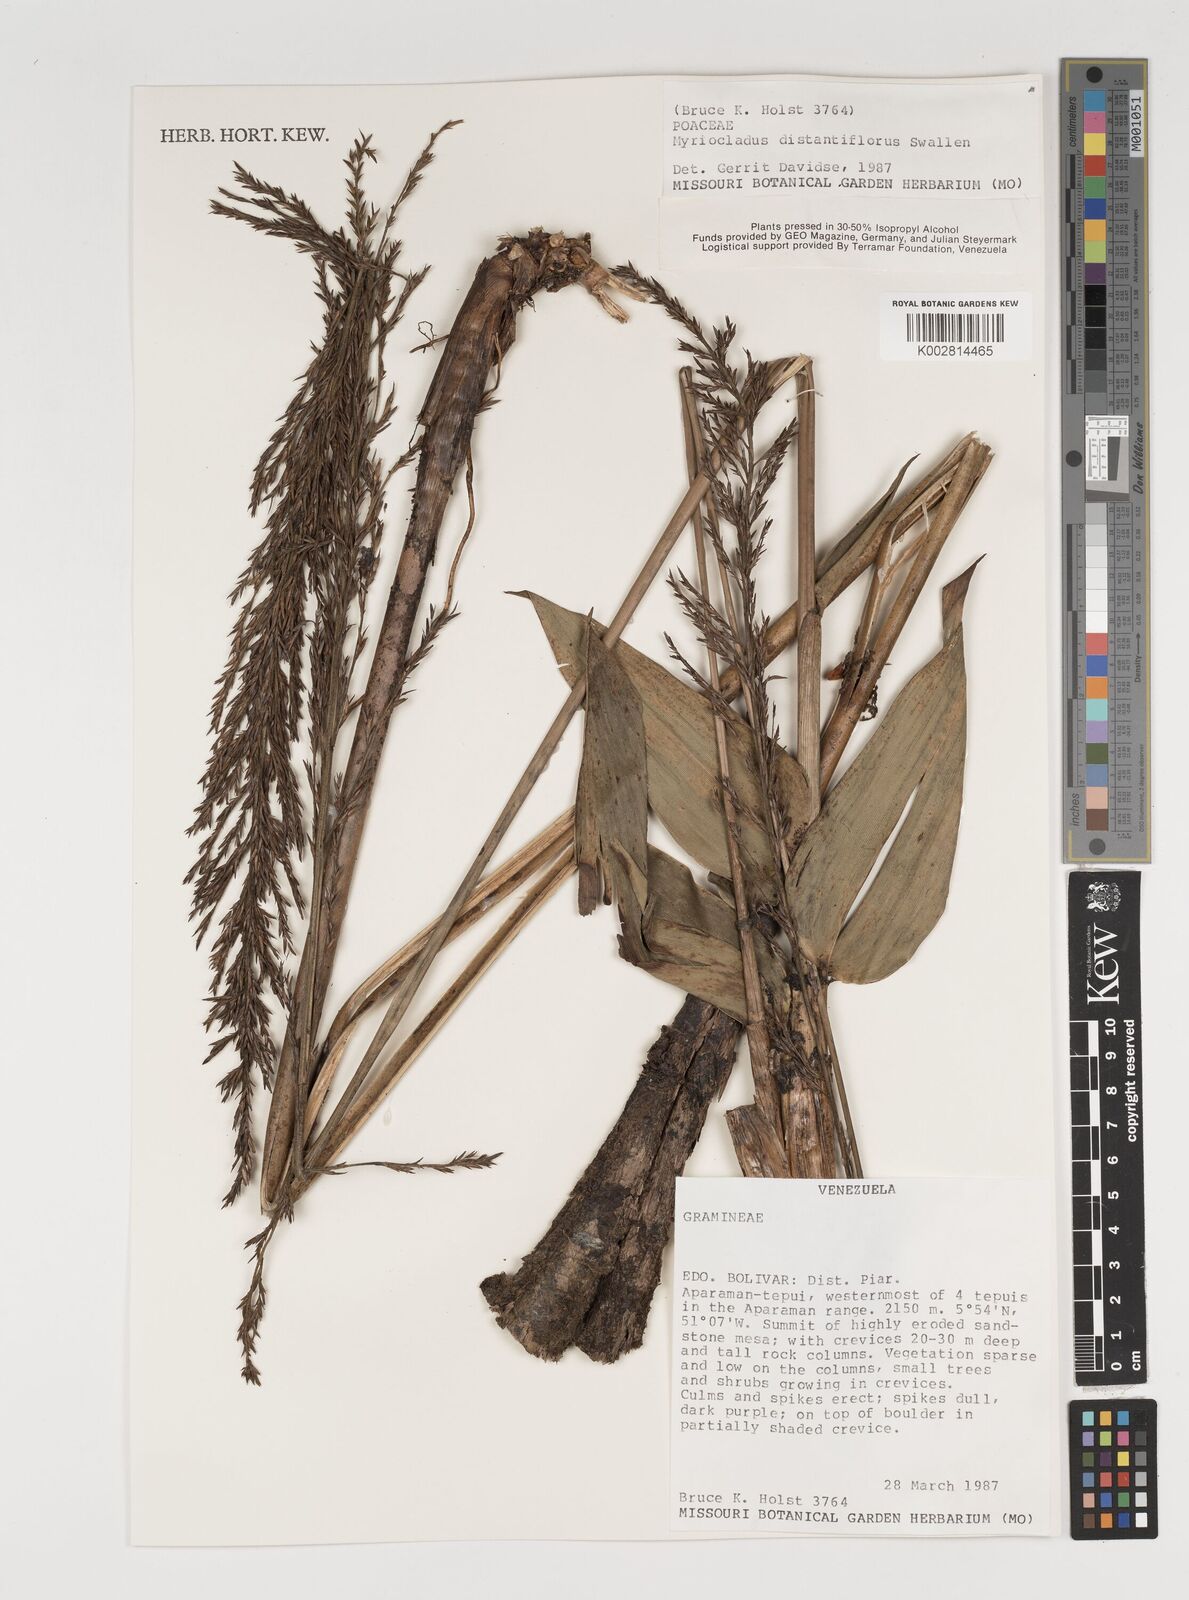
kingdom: Plantae
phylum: Tracheophyta
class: Liliopsida
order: Poales
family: Poaceae
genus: Myriocladus
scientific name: Myriocladus distantiflorus
